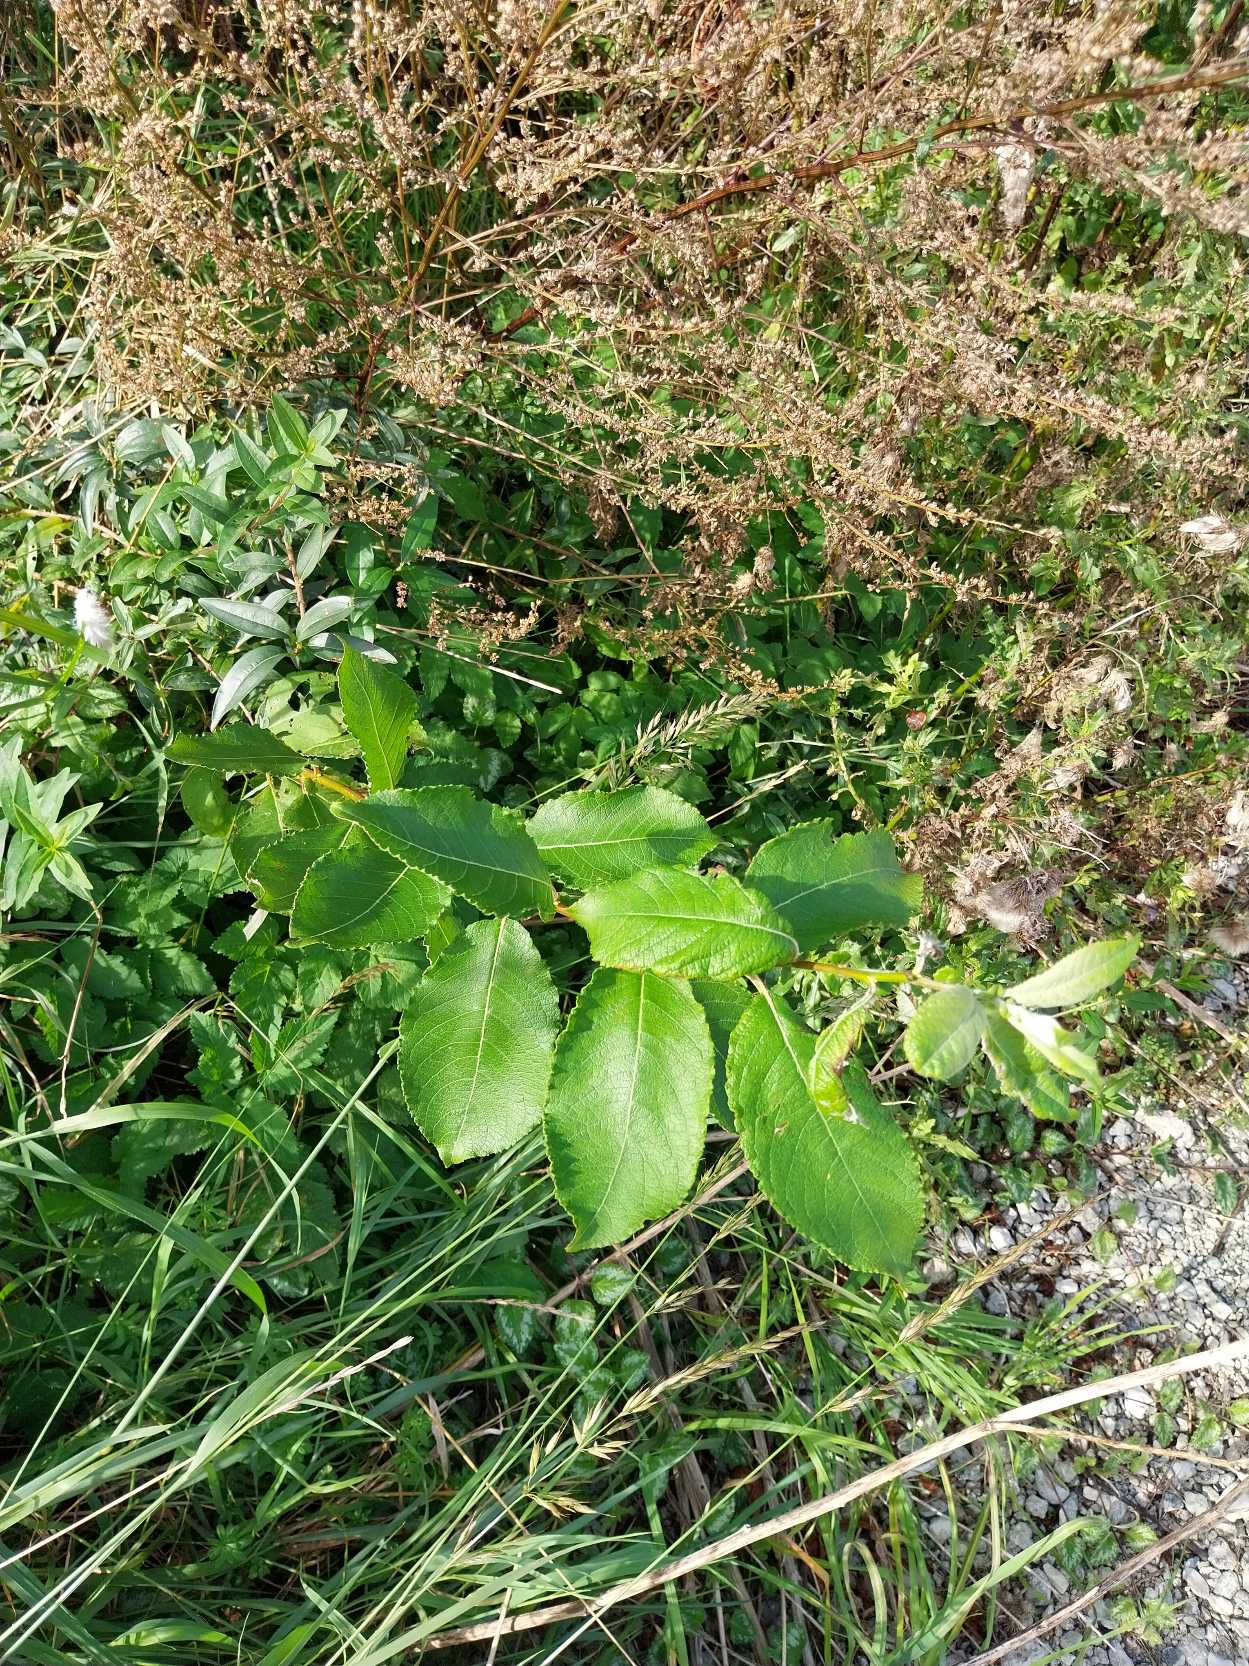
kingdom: Plantae
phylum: Tracheophyta
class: Magnoliopsida
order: Malpighiales
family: Salicaceae
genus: Salix
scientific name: Salix caprea
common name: Selje-pil
